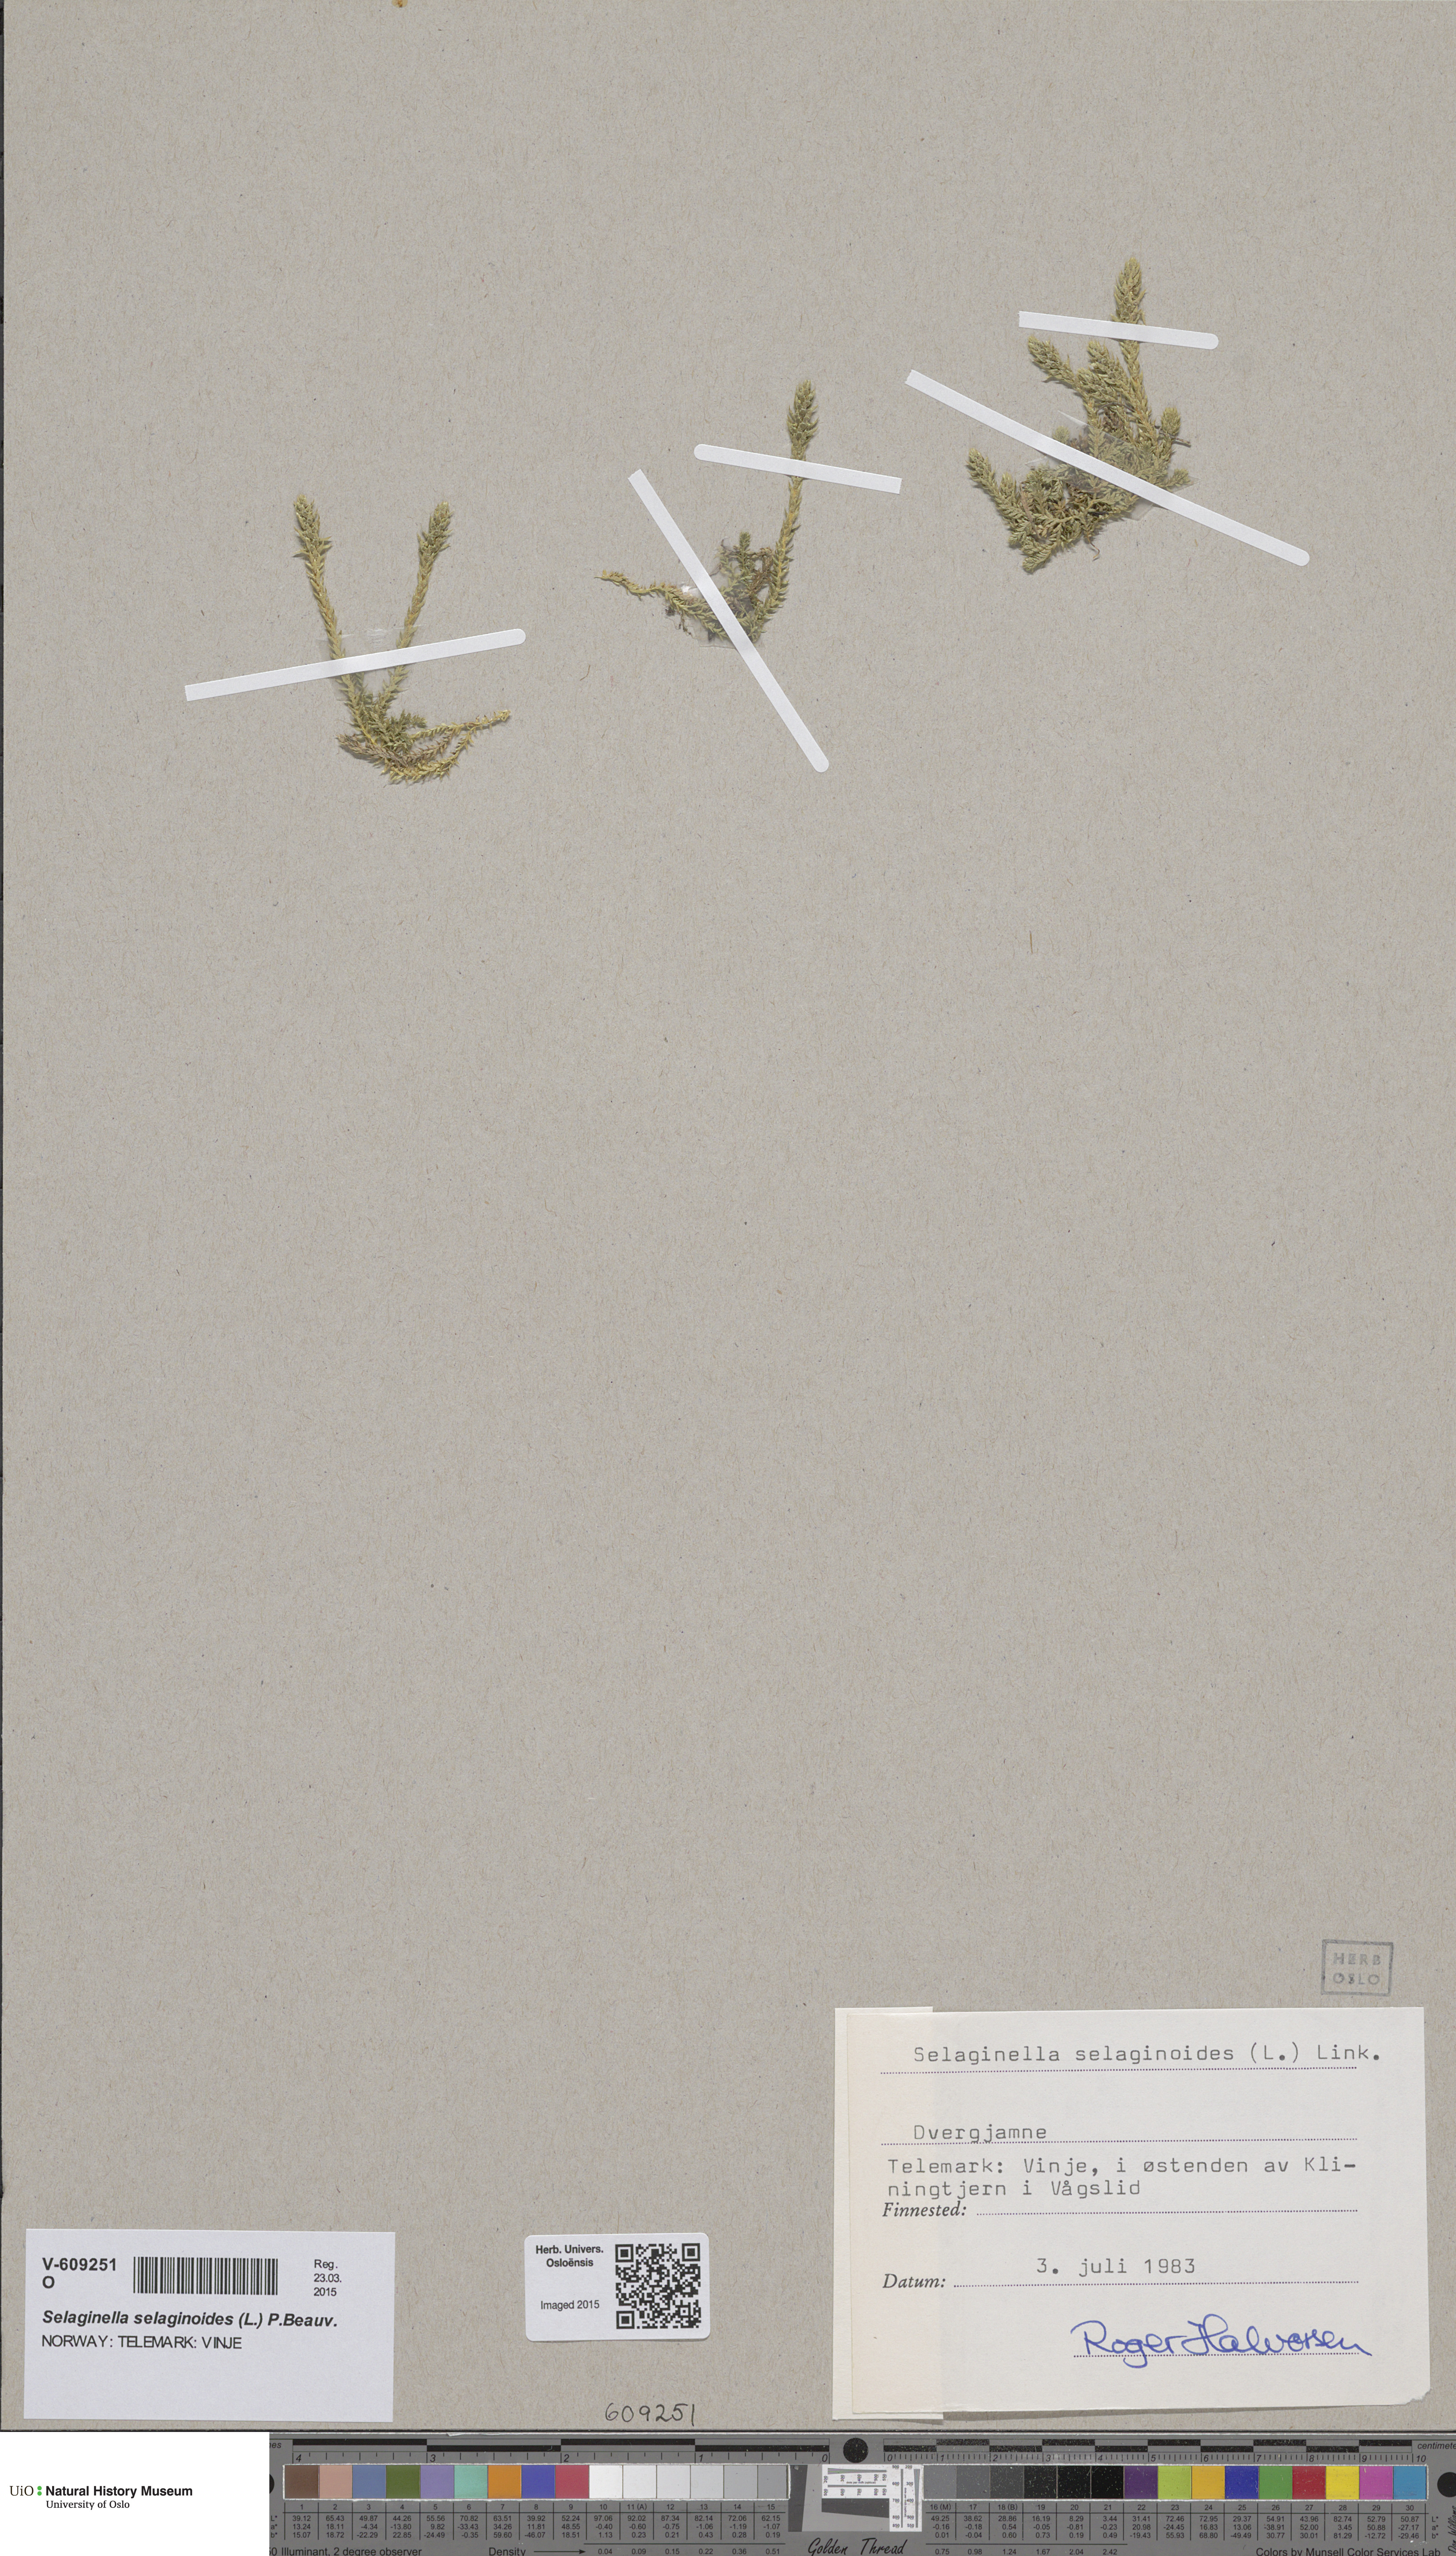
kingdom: Plantae
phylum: Tracheophyta
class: Lycopodiopsida
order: Selaginellales
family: Selaginellaceae
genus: Selaginella
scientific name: Selaginella selaginoides
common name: Prickly mountain-moss
